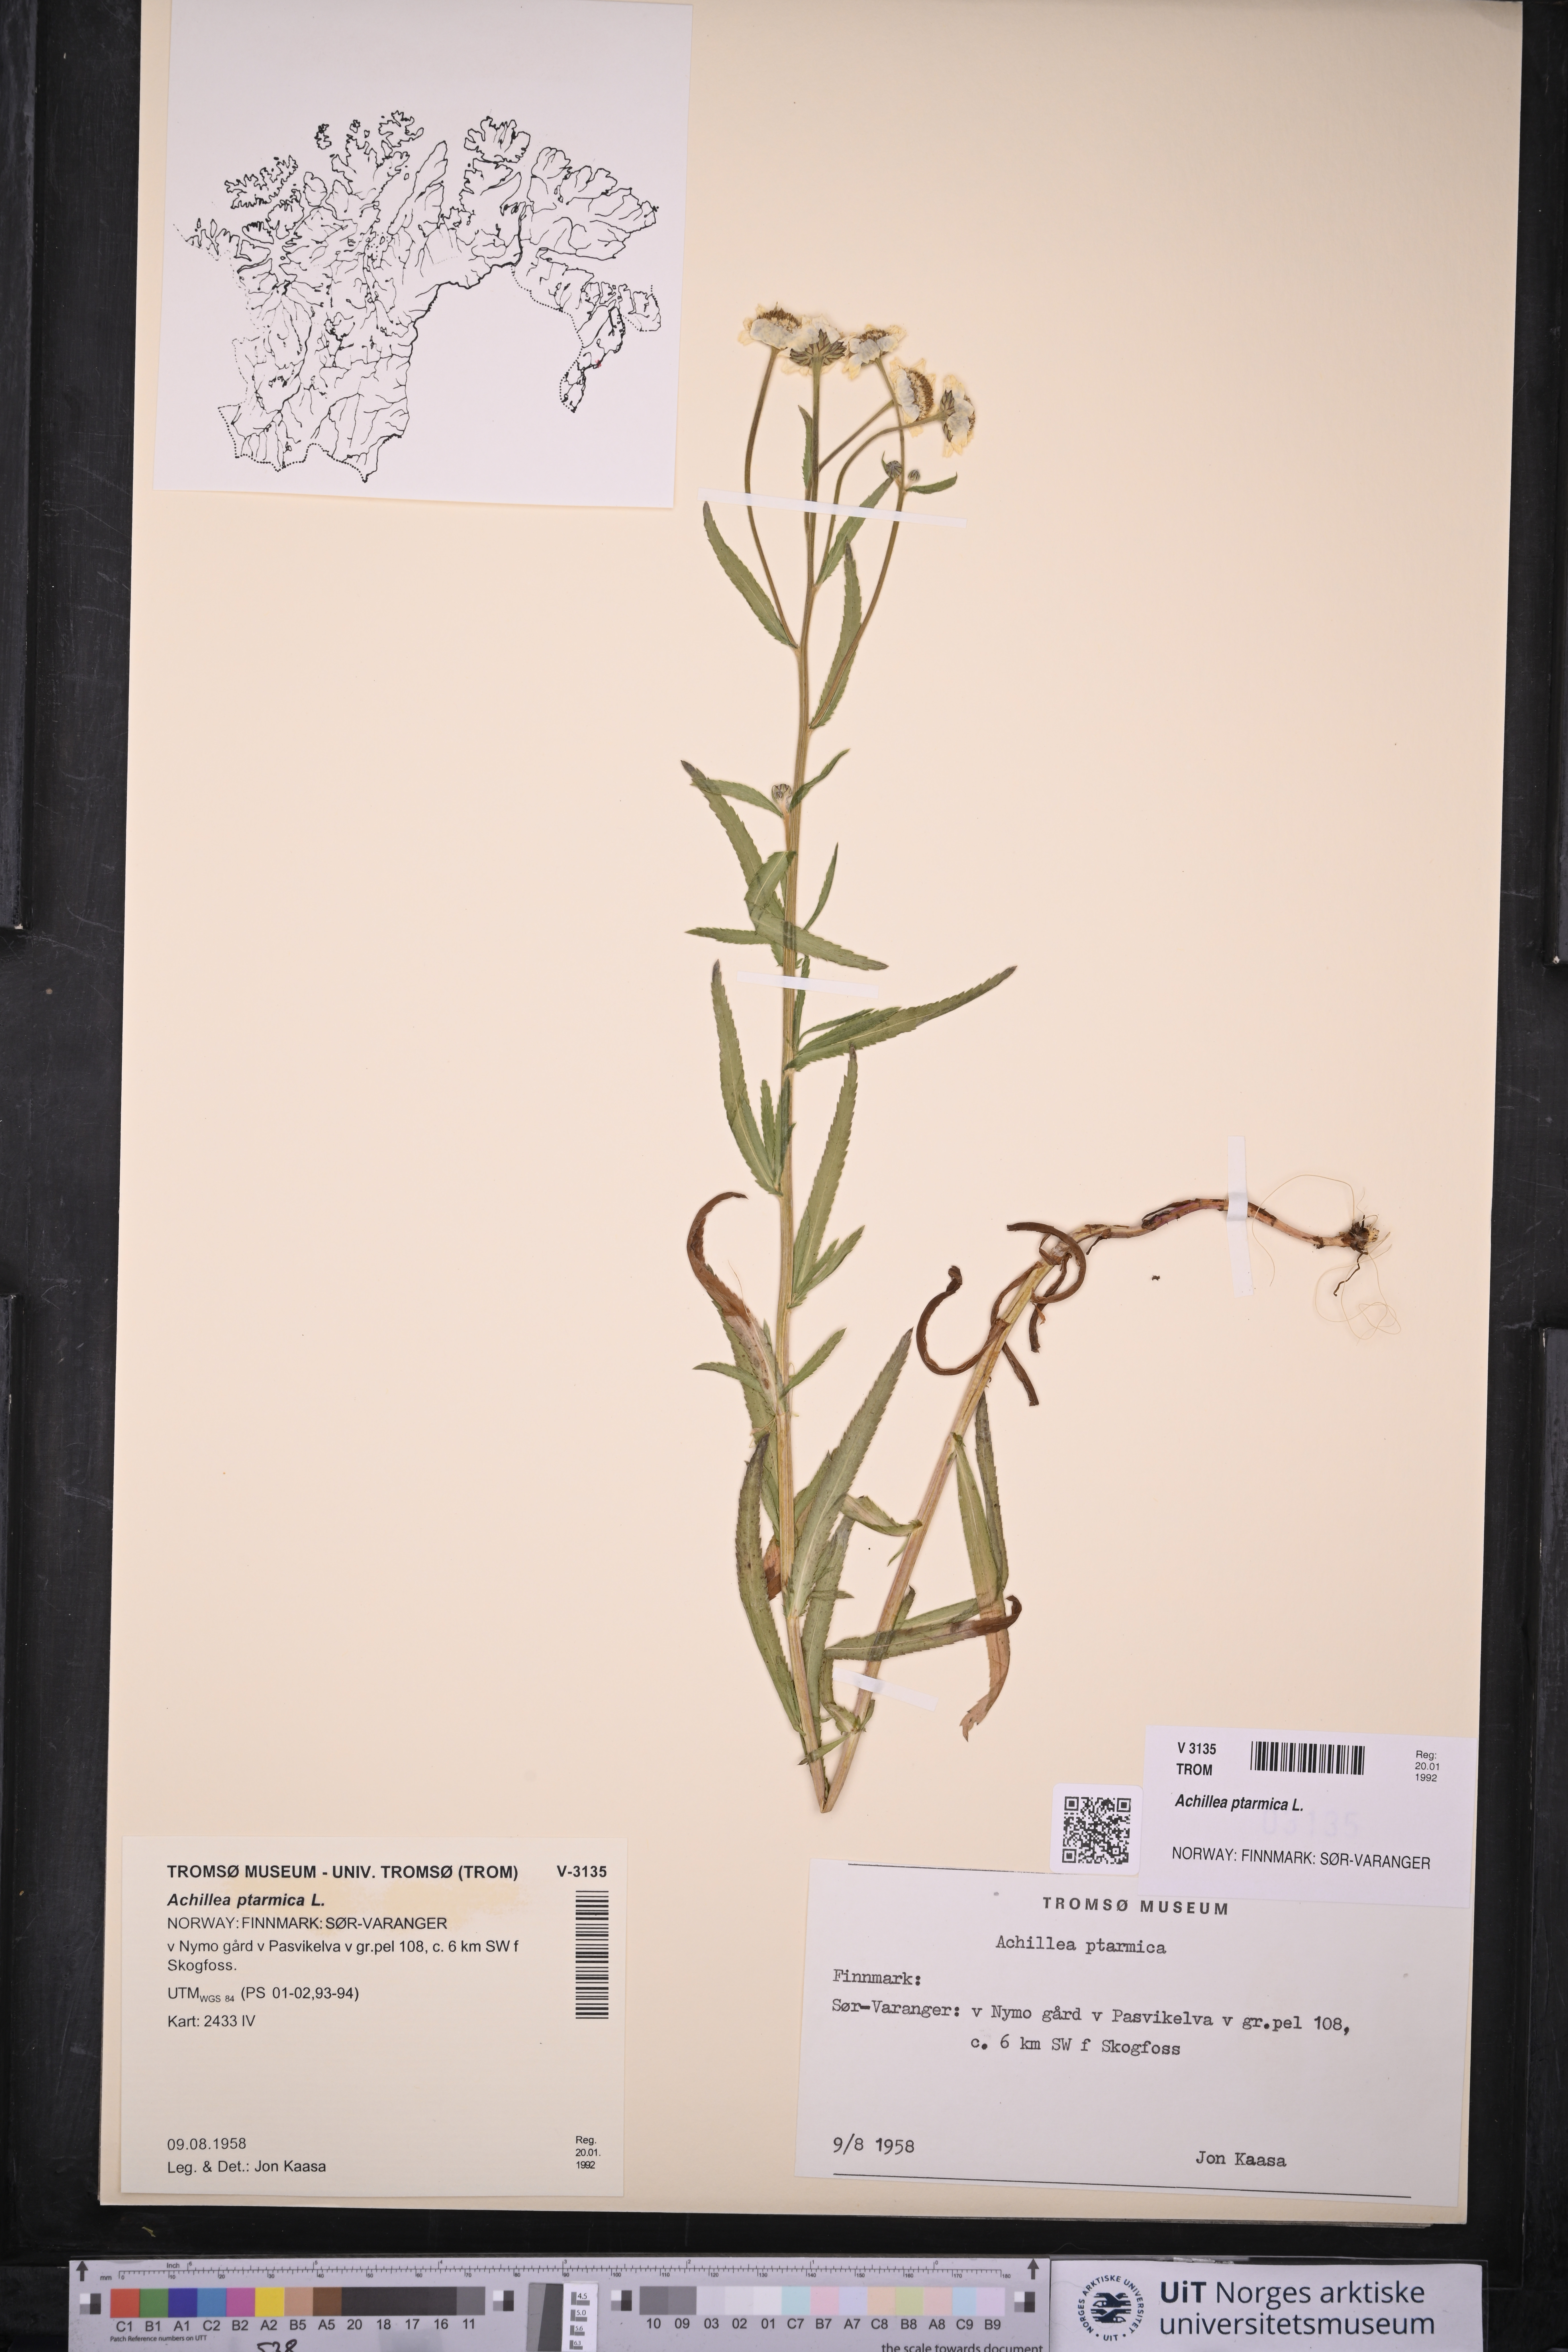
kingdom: Plantae
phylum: Tracheophyta
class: Magnoliopsida
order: Asterales
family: Asteraceae
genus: Achillea
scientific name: Achillea ptarmica
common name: Sneezeweed
